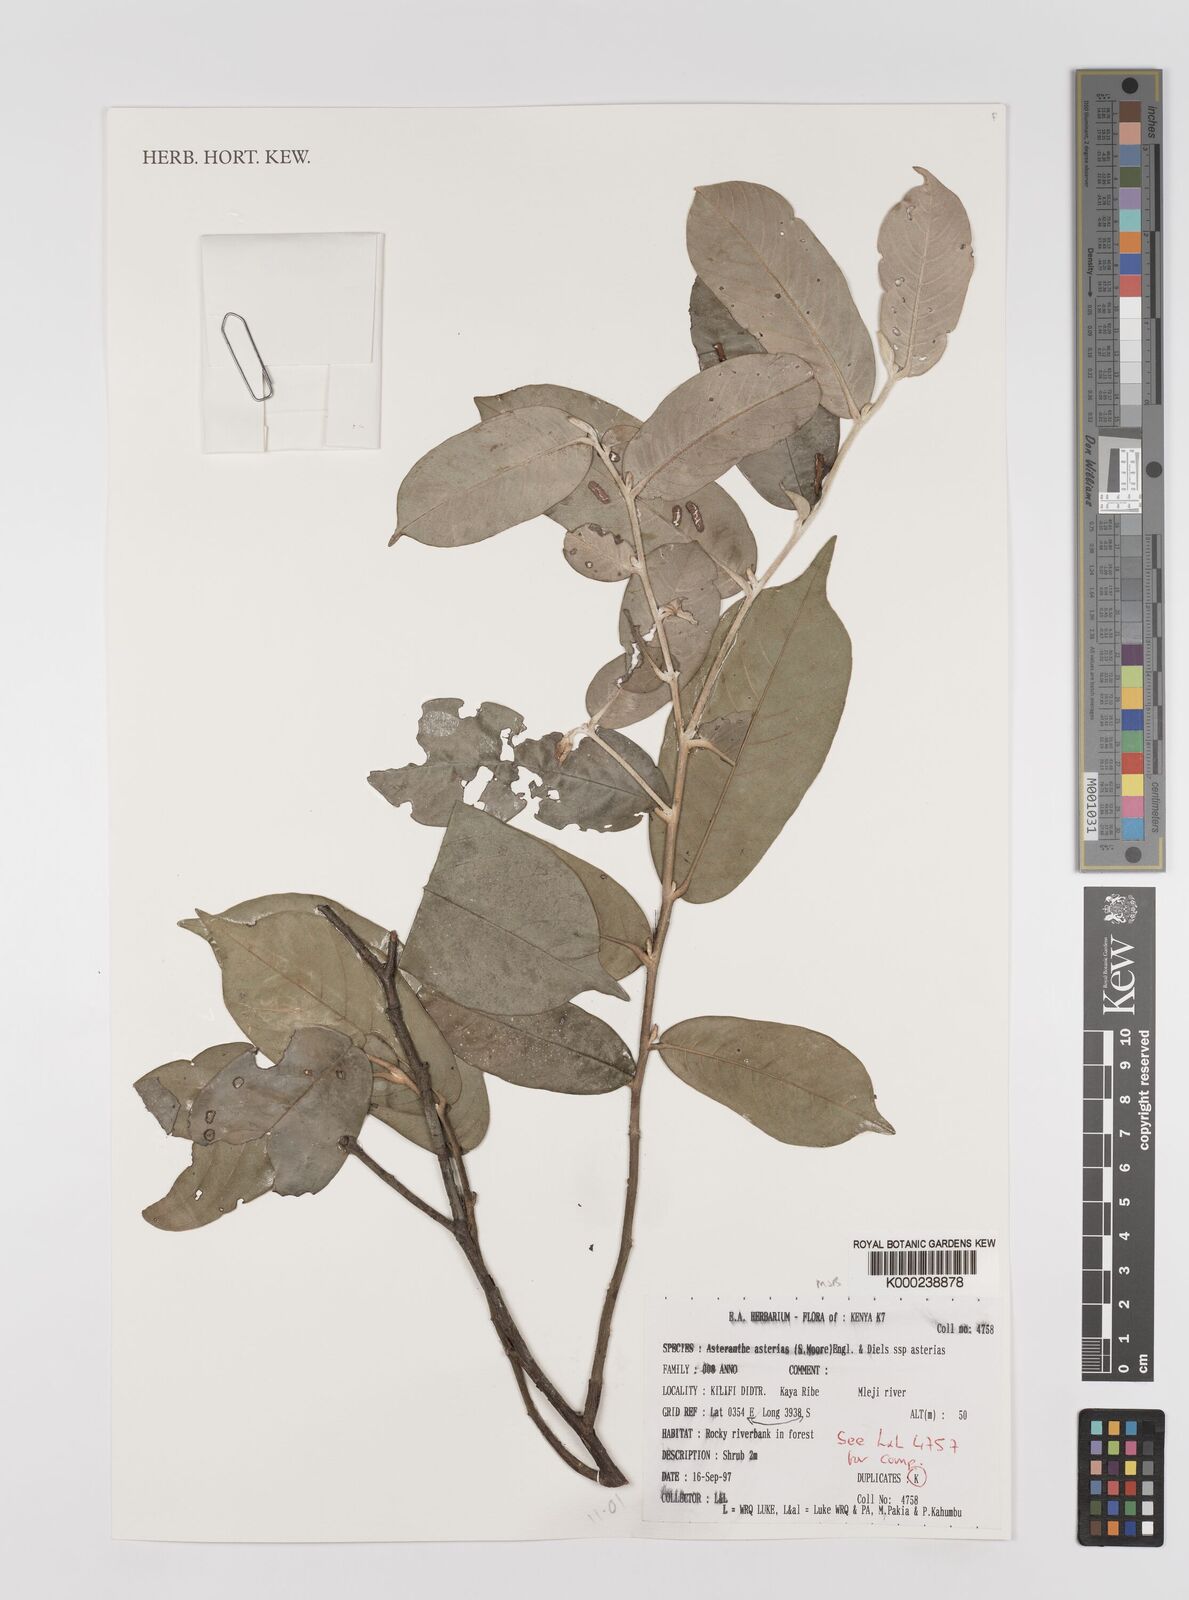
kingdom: Plantae
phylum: Tracheophyta
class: Magnoliopsida
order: Magnoliales
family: Annonaceae
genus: Asteranthe
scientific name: Asteranthe asterias
